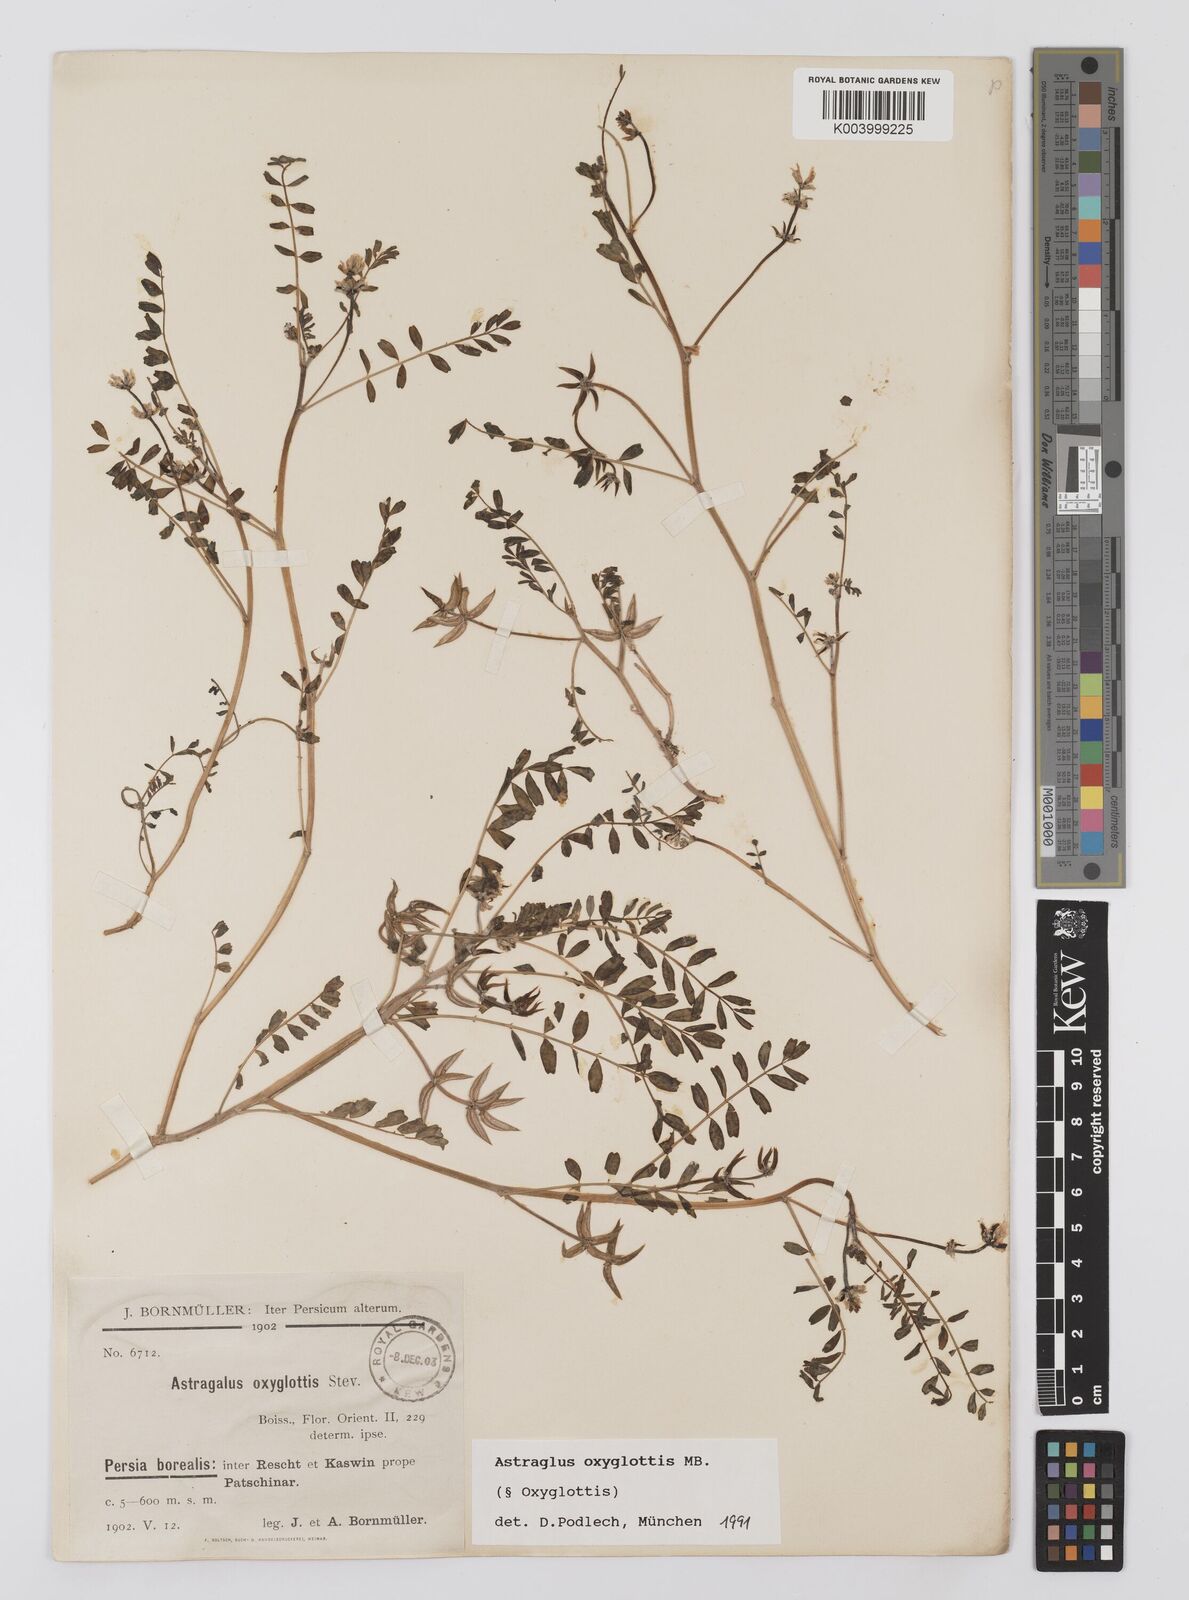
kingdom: Plantae
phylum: Tracheophyta
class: Magnoliopsida
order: Fabales
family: Fabaceae
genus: Astragalus
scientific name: Astragalus oxyglottis
